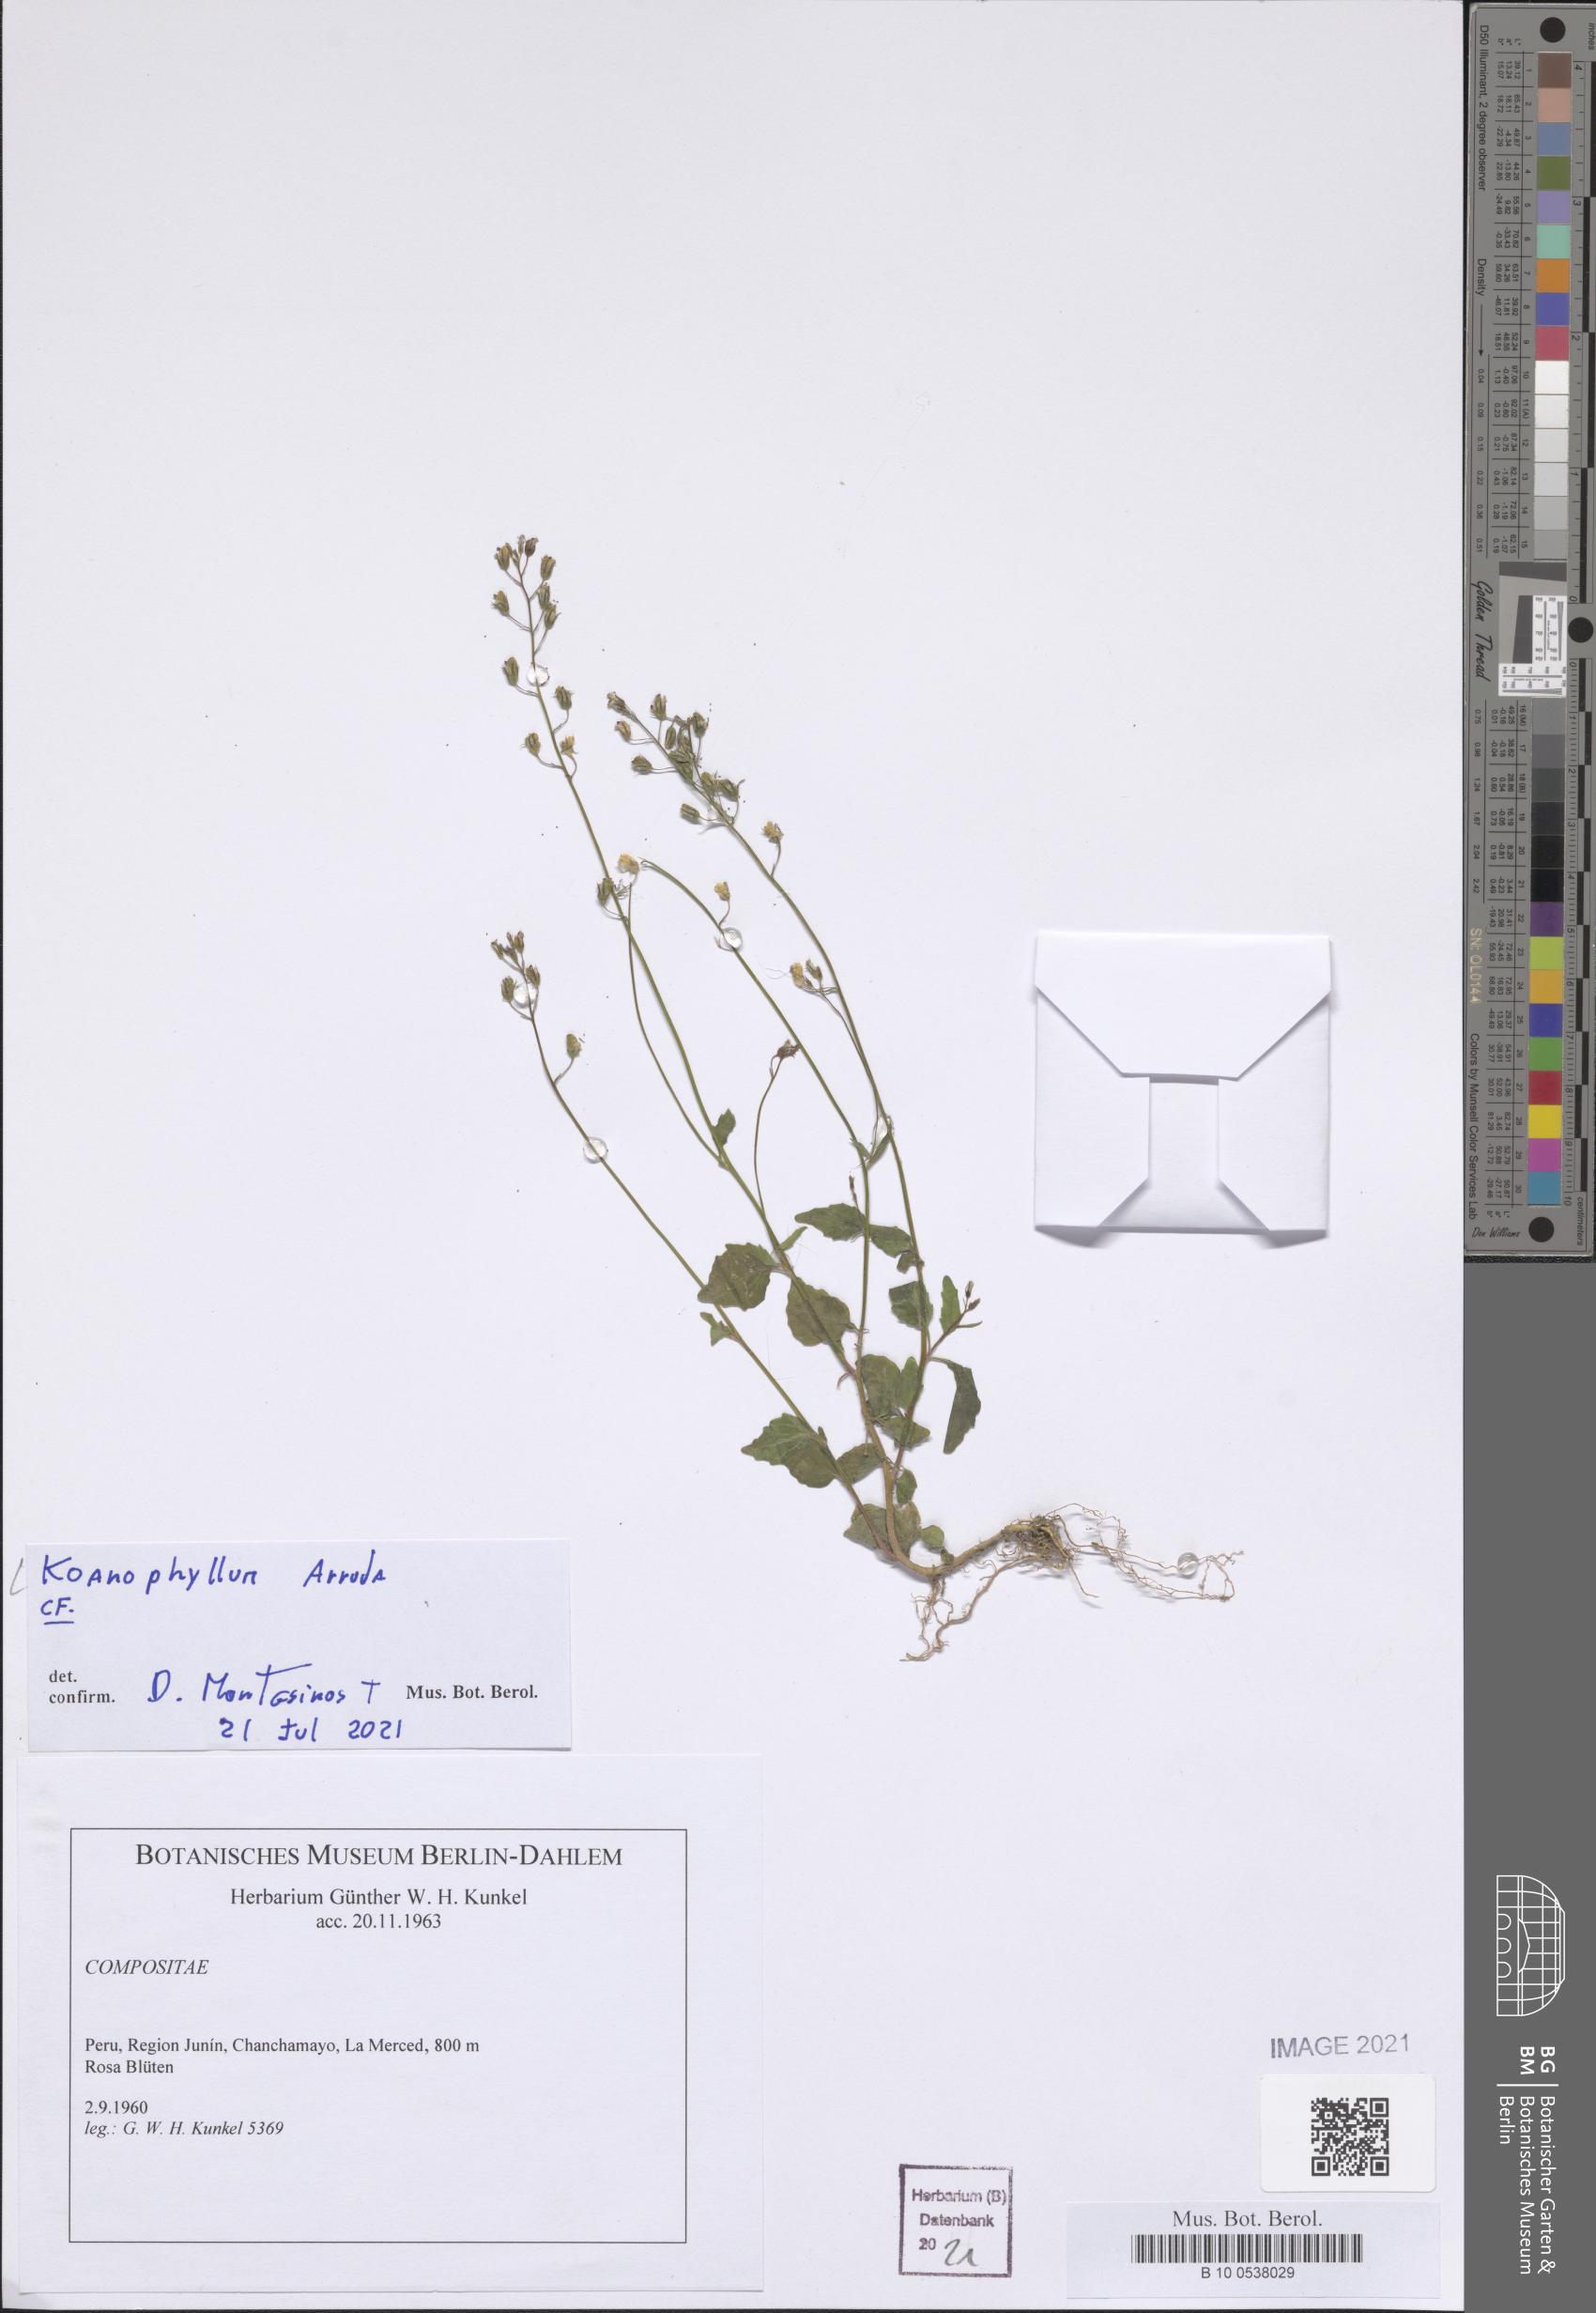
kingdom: Plantae
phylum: Tracheophyta
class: Magnoliopsida
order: Asterales
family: Asteraceae
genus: Koanophyllon
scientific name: Koanophyllon
